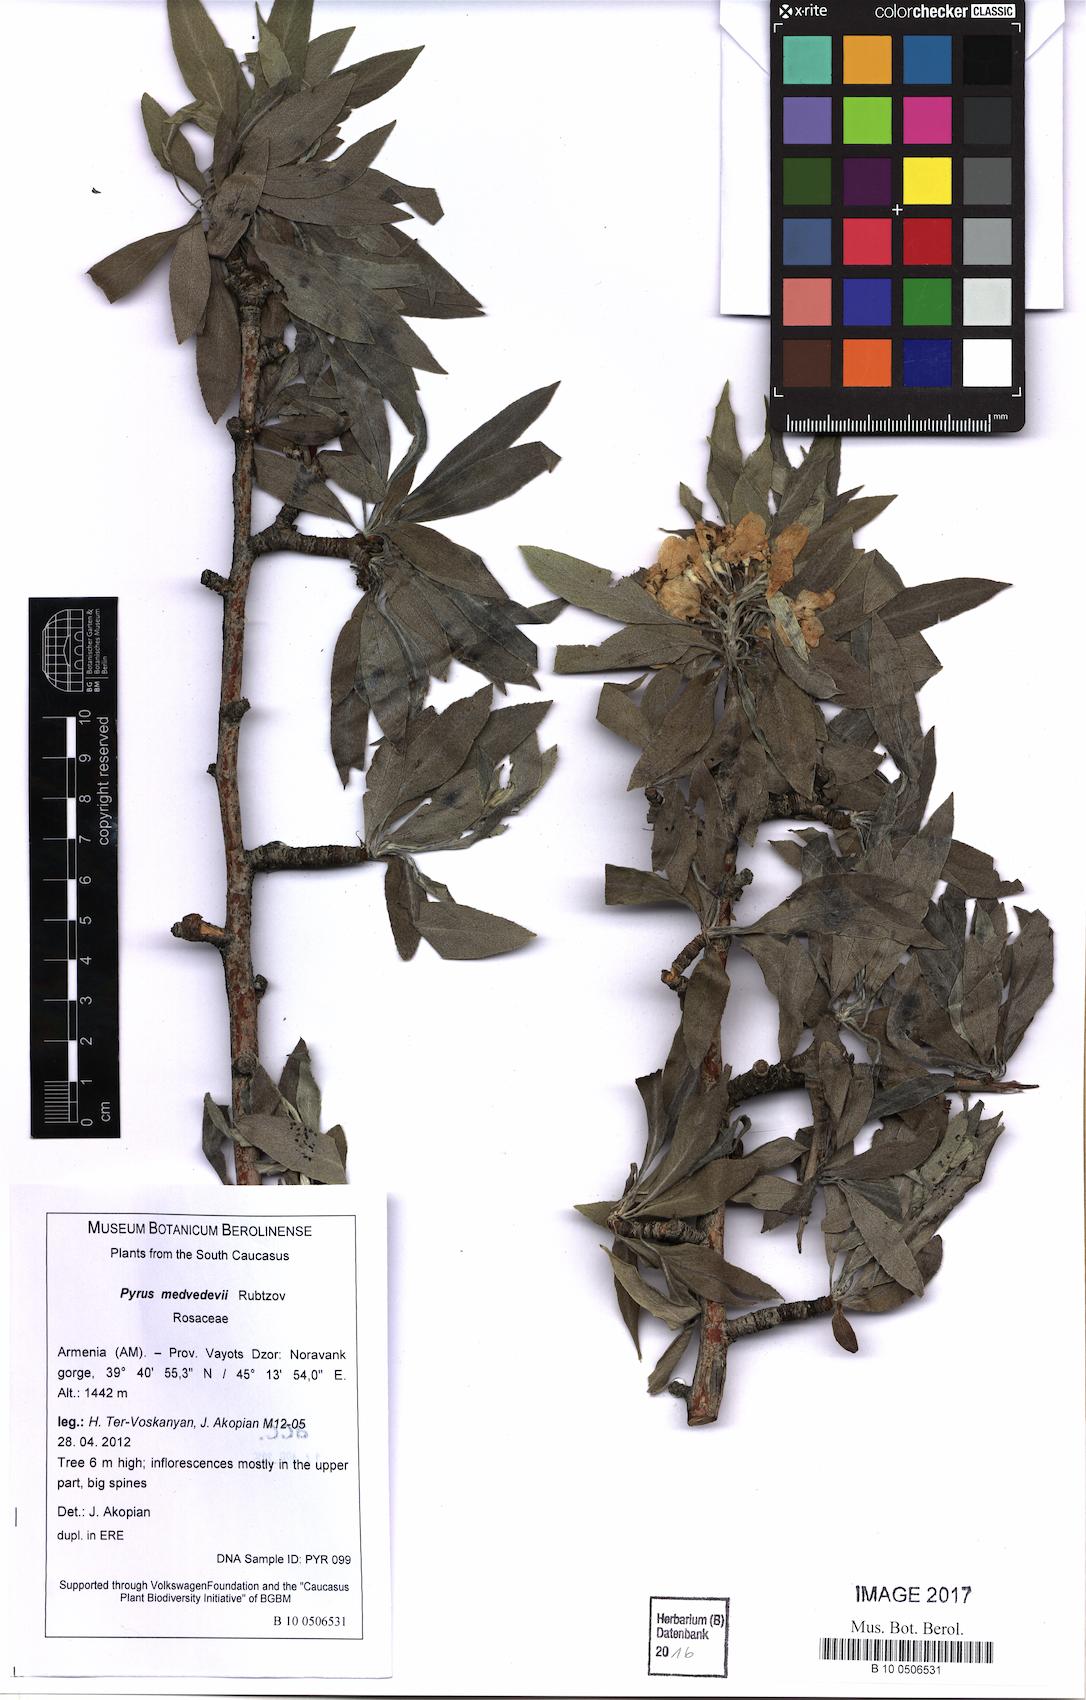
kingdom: Plantae
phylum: Tracheophyta
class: Magnoliopsida
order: Rosales
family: Rosaceae
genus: Pyrus
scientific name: Pyrus medvedevii
